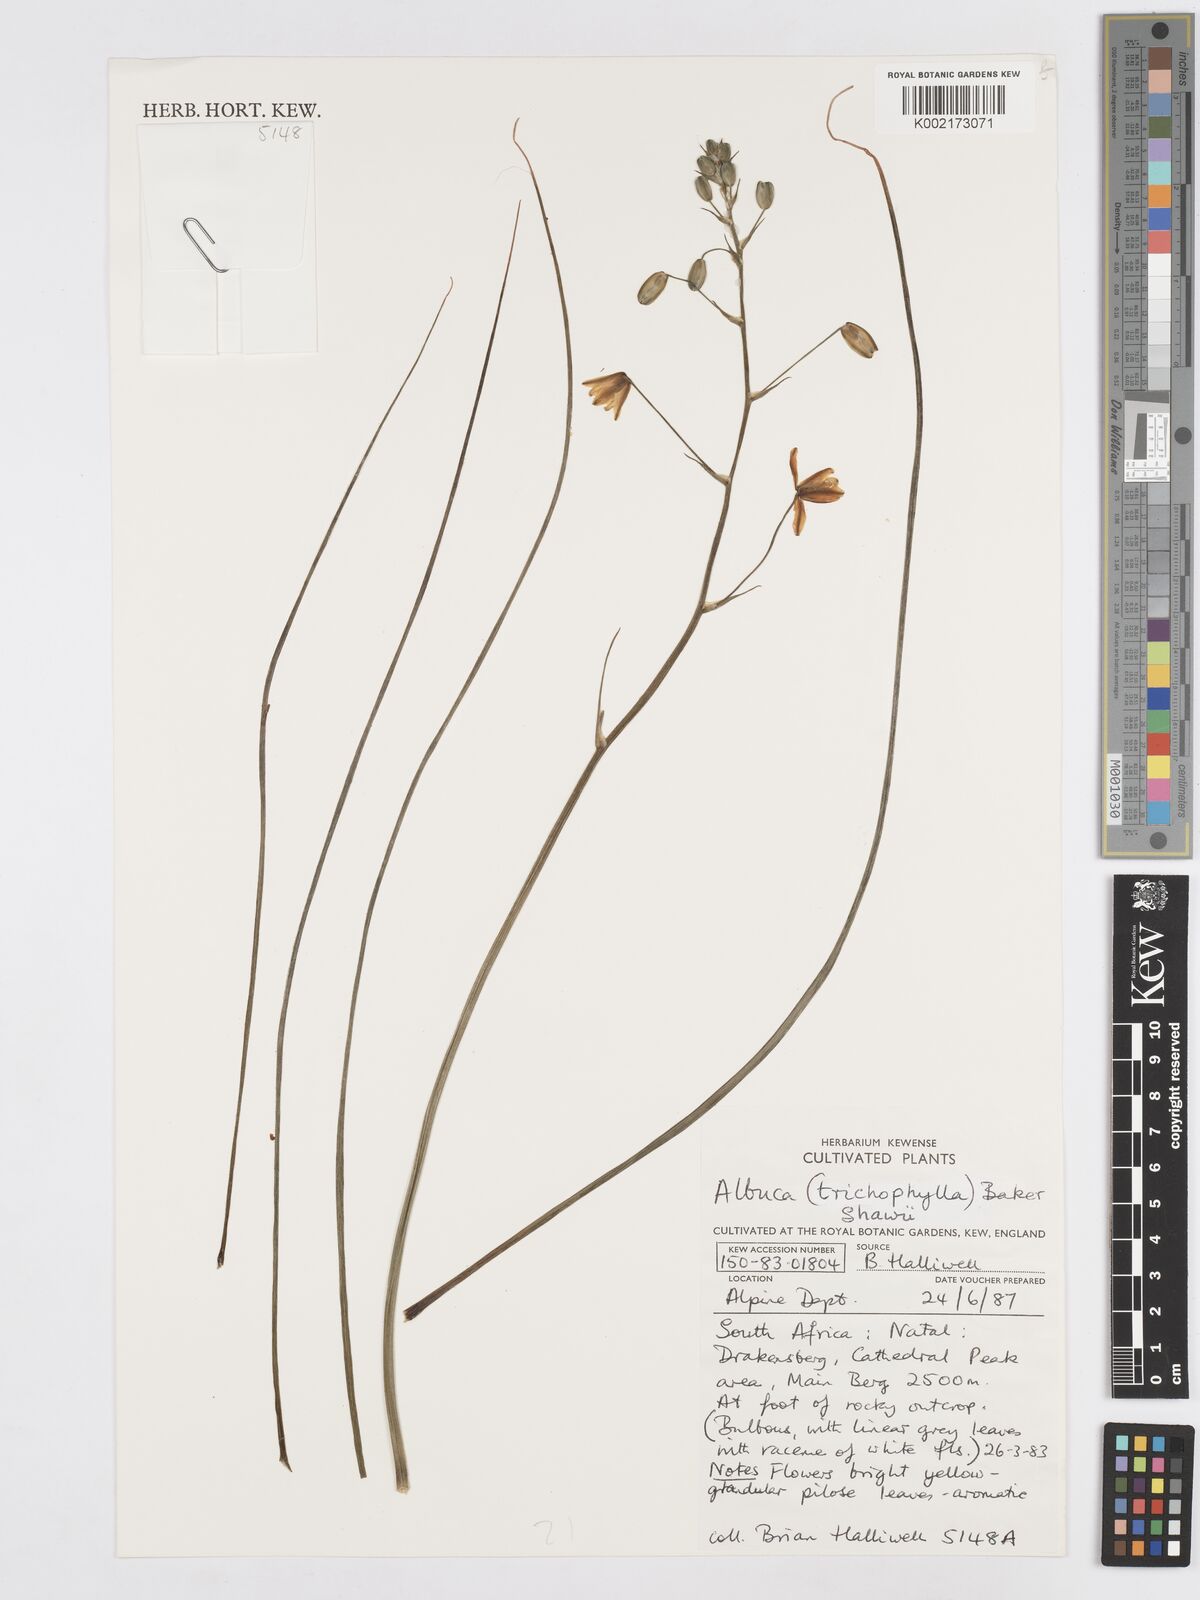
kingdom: Plantae
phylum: Tracheophyta
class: Liliopsida
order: Asparagales
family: Asparagaceae
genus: Albuca
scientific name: Albuca shawii
